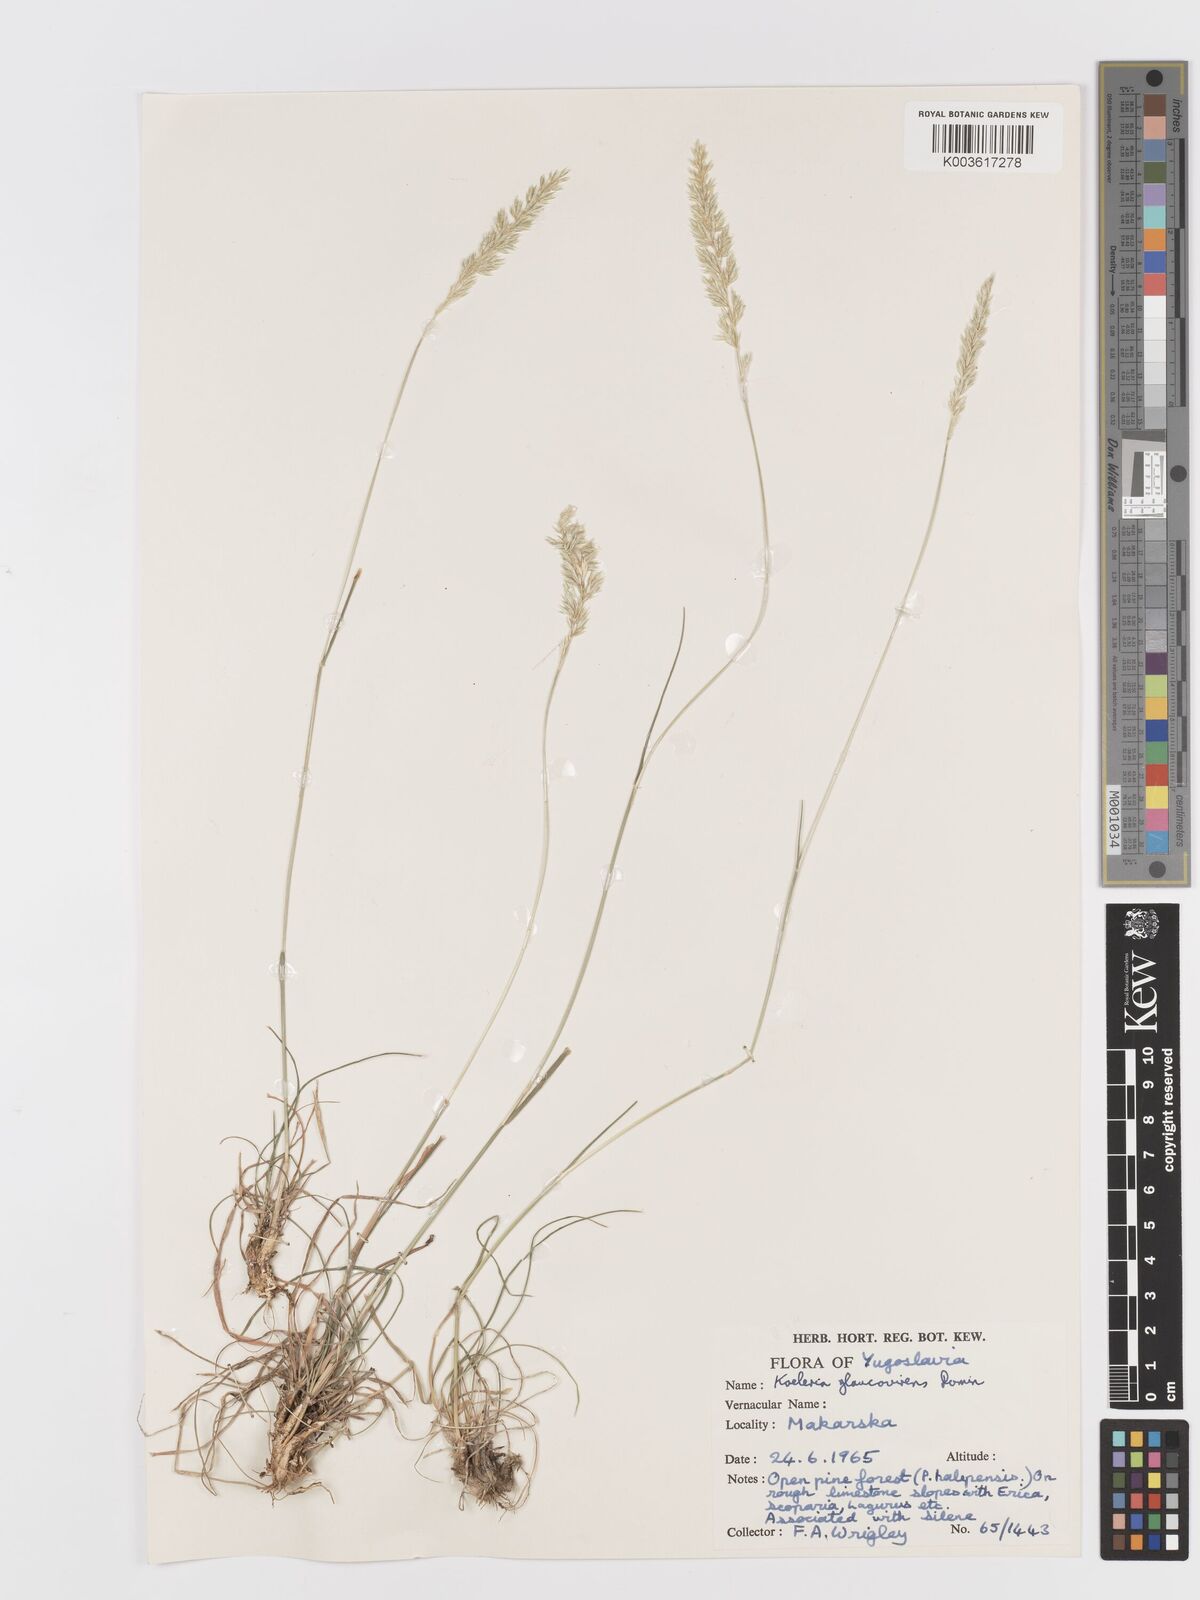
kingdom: Plantae
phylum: Tracheophyta
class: Liliopsida
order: Poales
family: Poaceae
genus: Koeleria
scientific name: Koeleria macrantha
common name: Crested hair-grass
